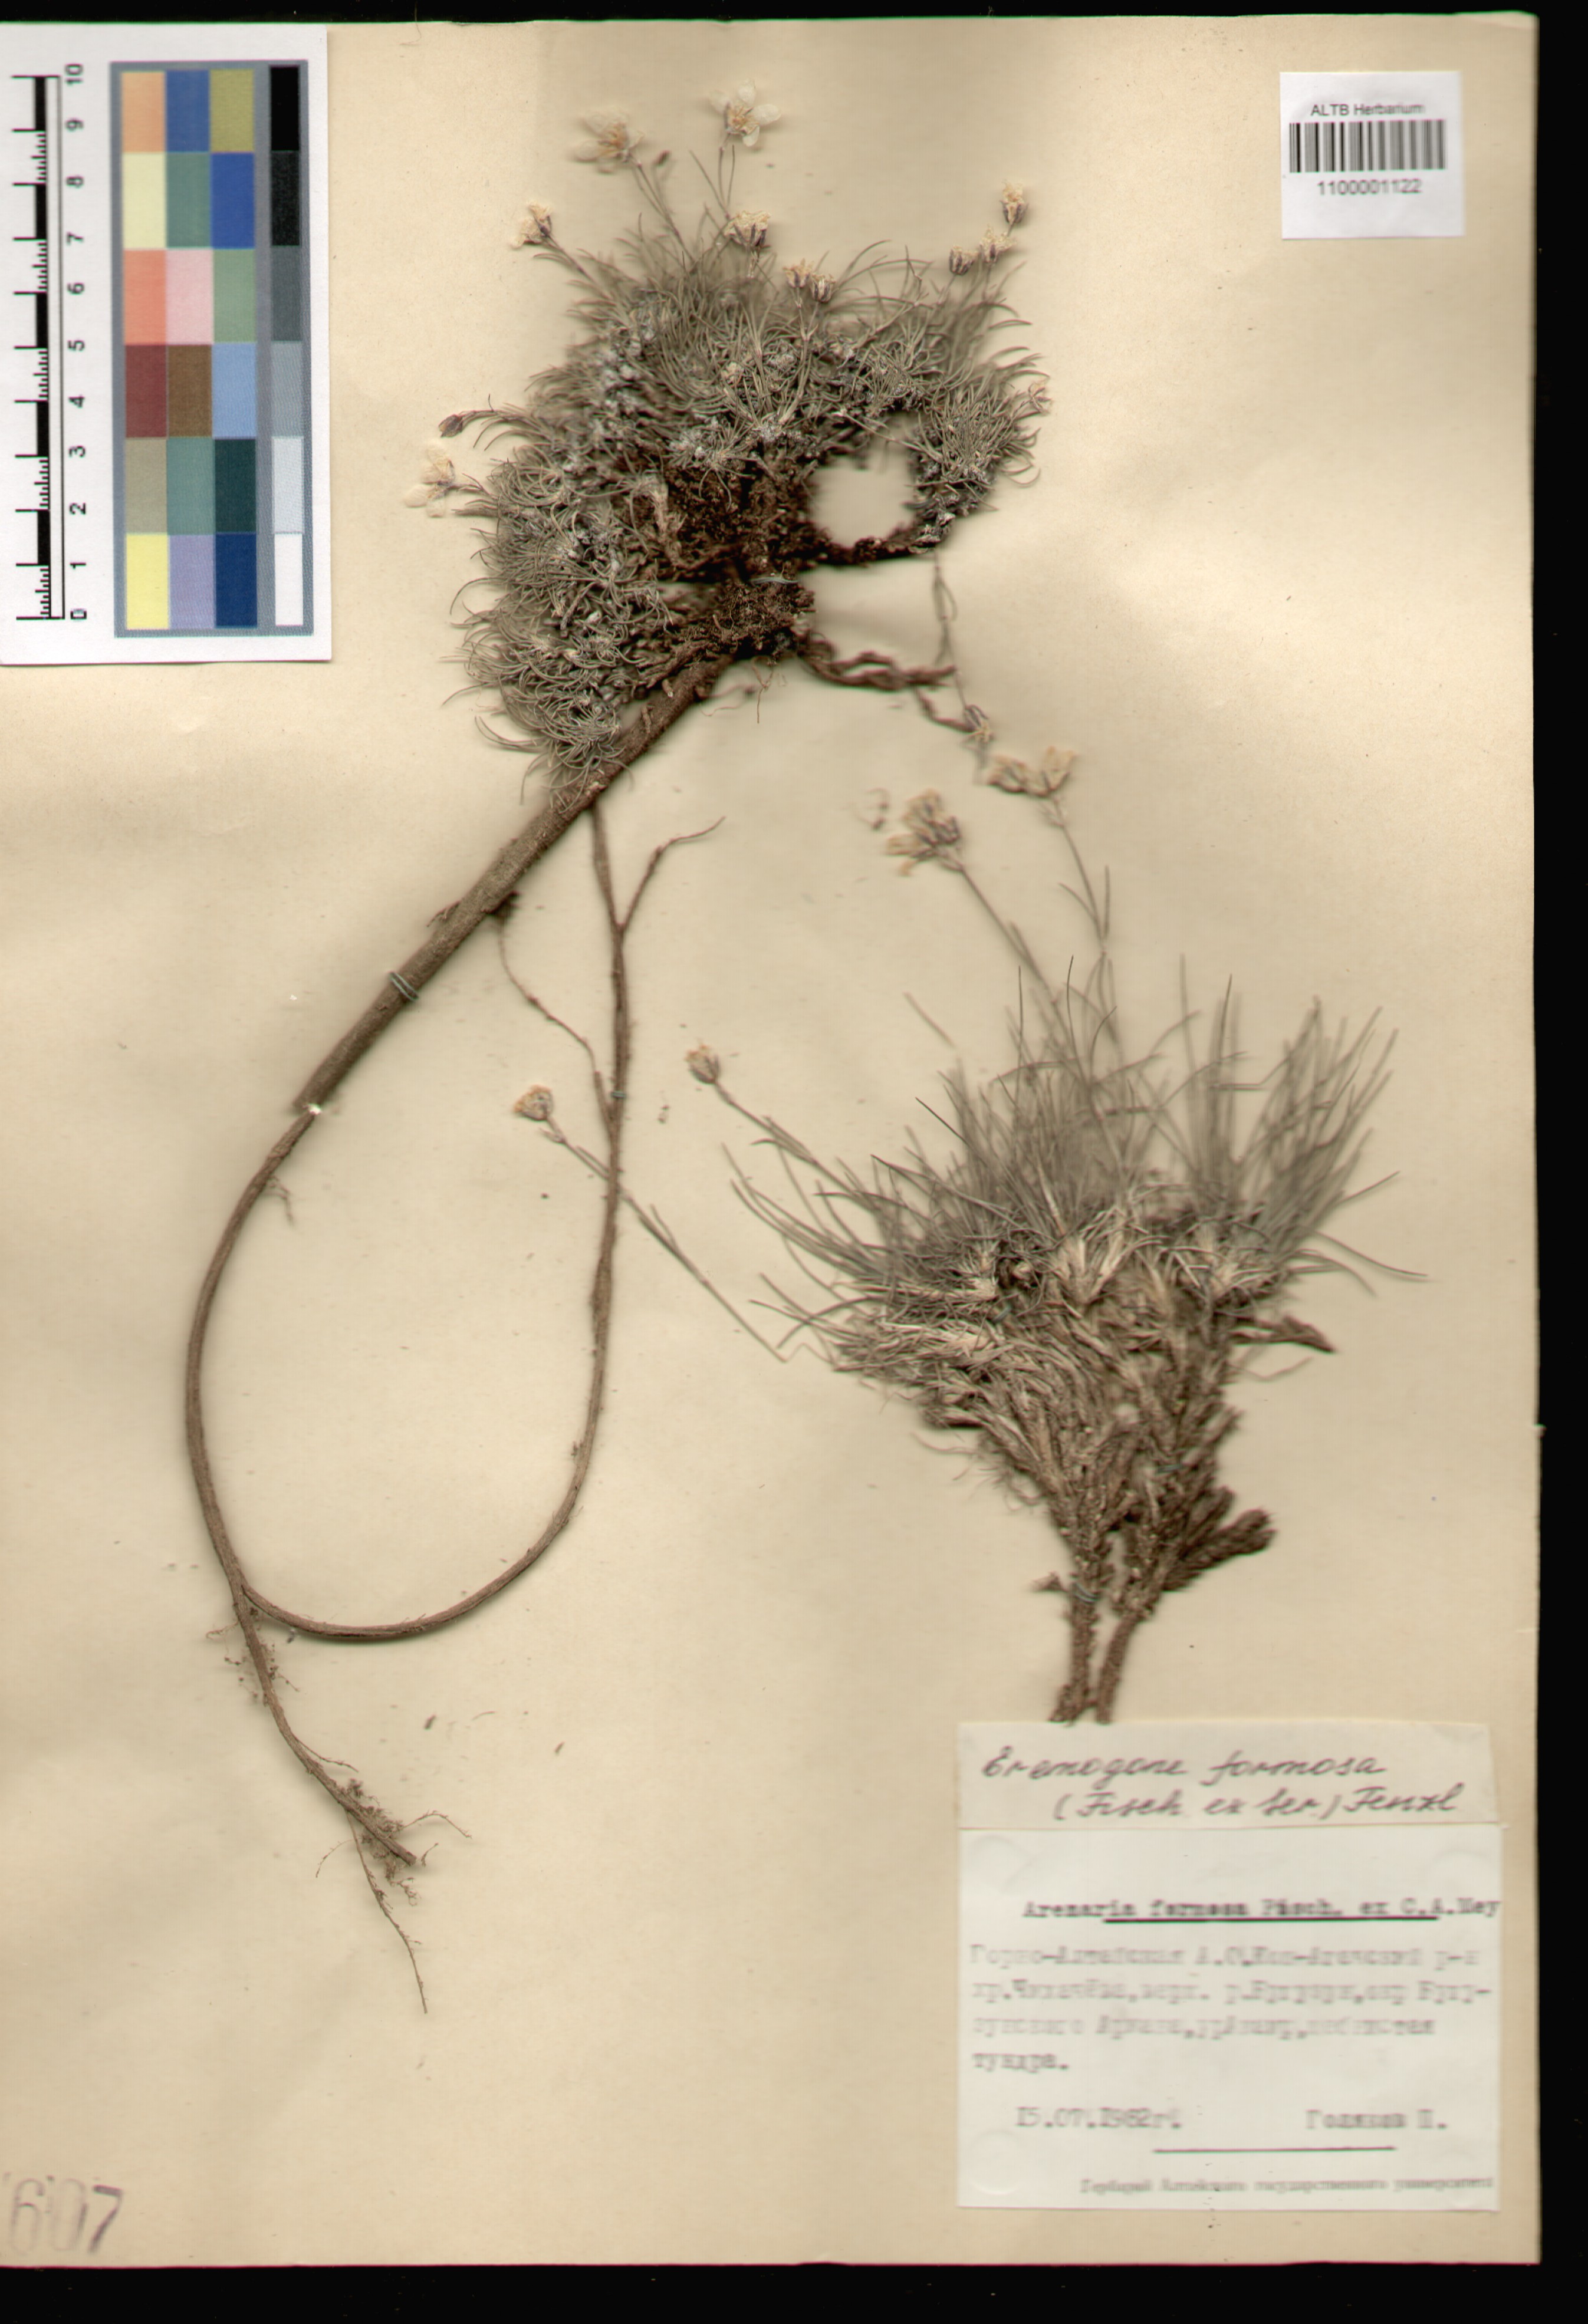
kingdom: Plantae
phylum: Tracheophyta
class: Magnoliopsida
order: Caryophyllales
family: Caryophyllaceae
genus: Eremogone
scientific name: Eremogone formosa
